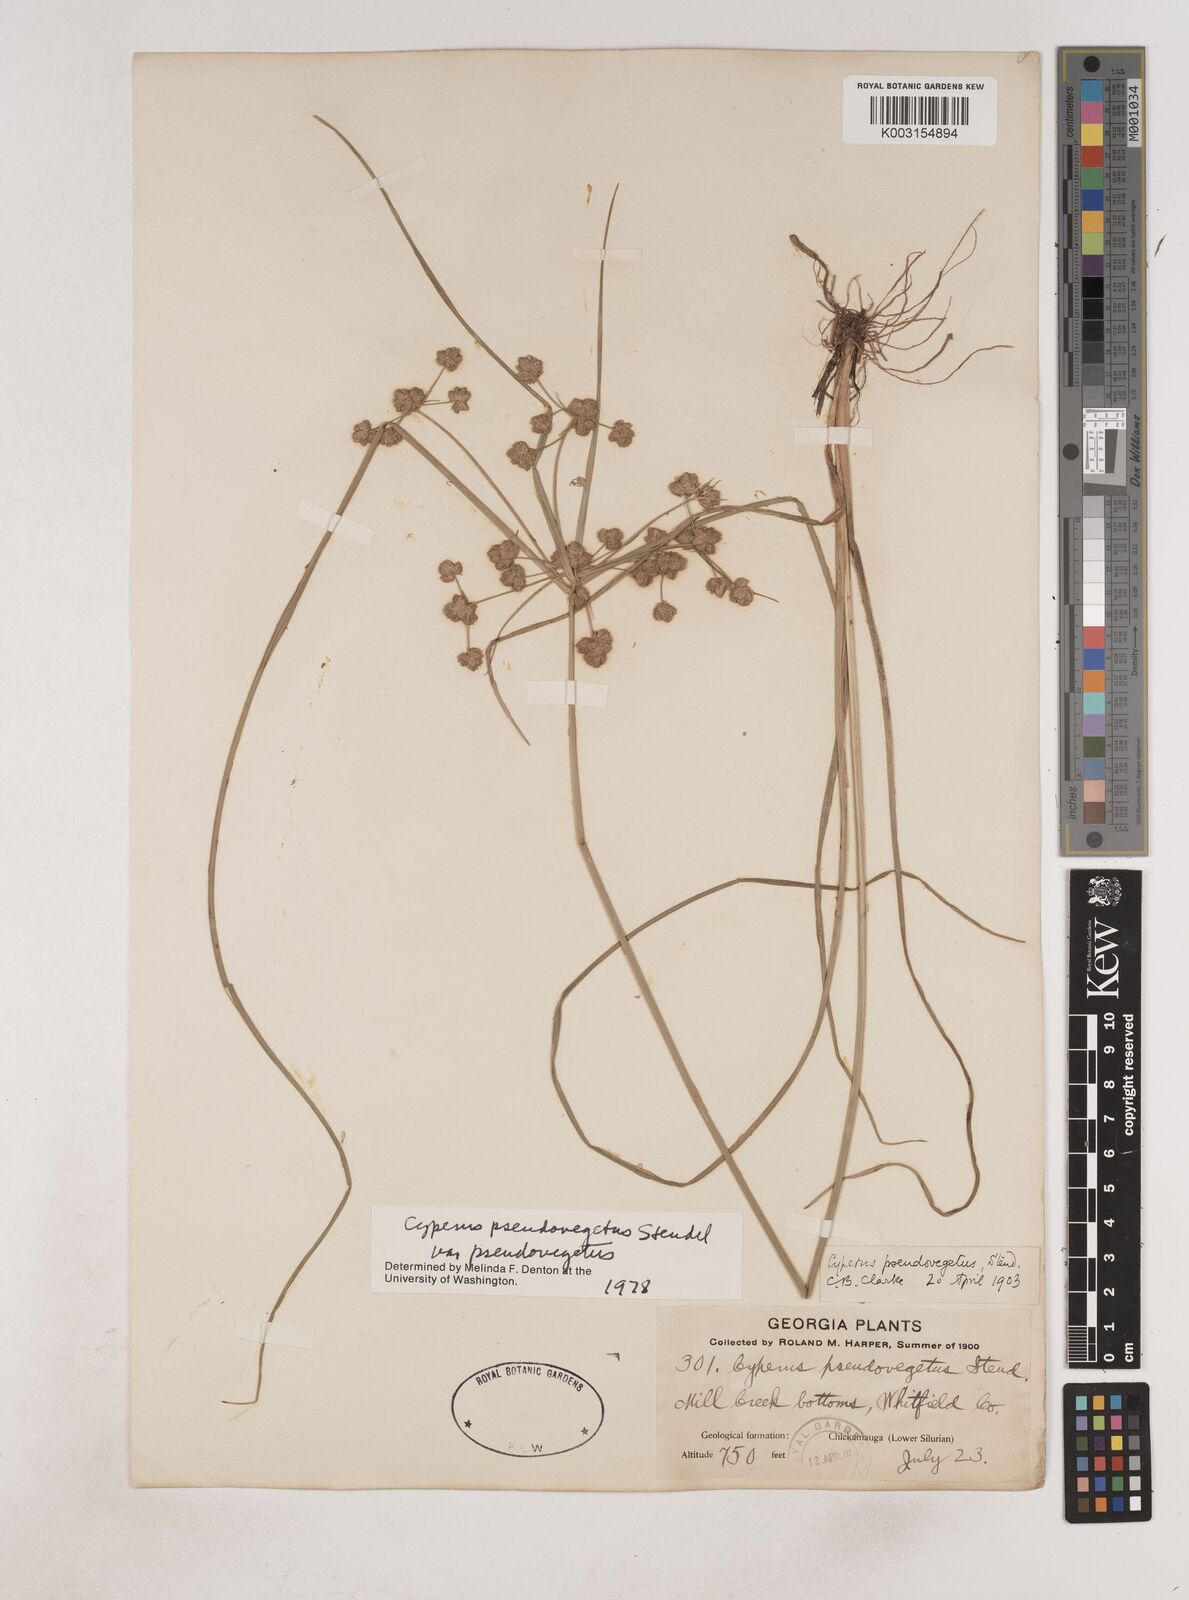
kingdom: Plantae
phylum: Tracheophyta
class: Liliopsida
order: Poales
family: Cyperaceae
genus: Cyperus
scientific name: Cyperus pseudovegetus
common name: Marsh flat sedge
